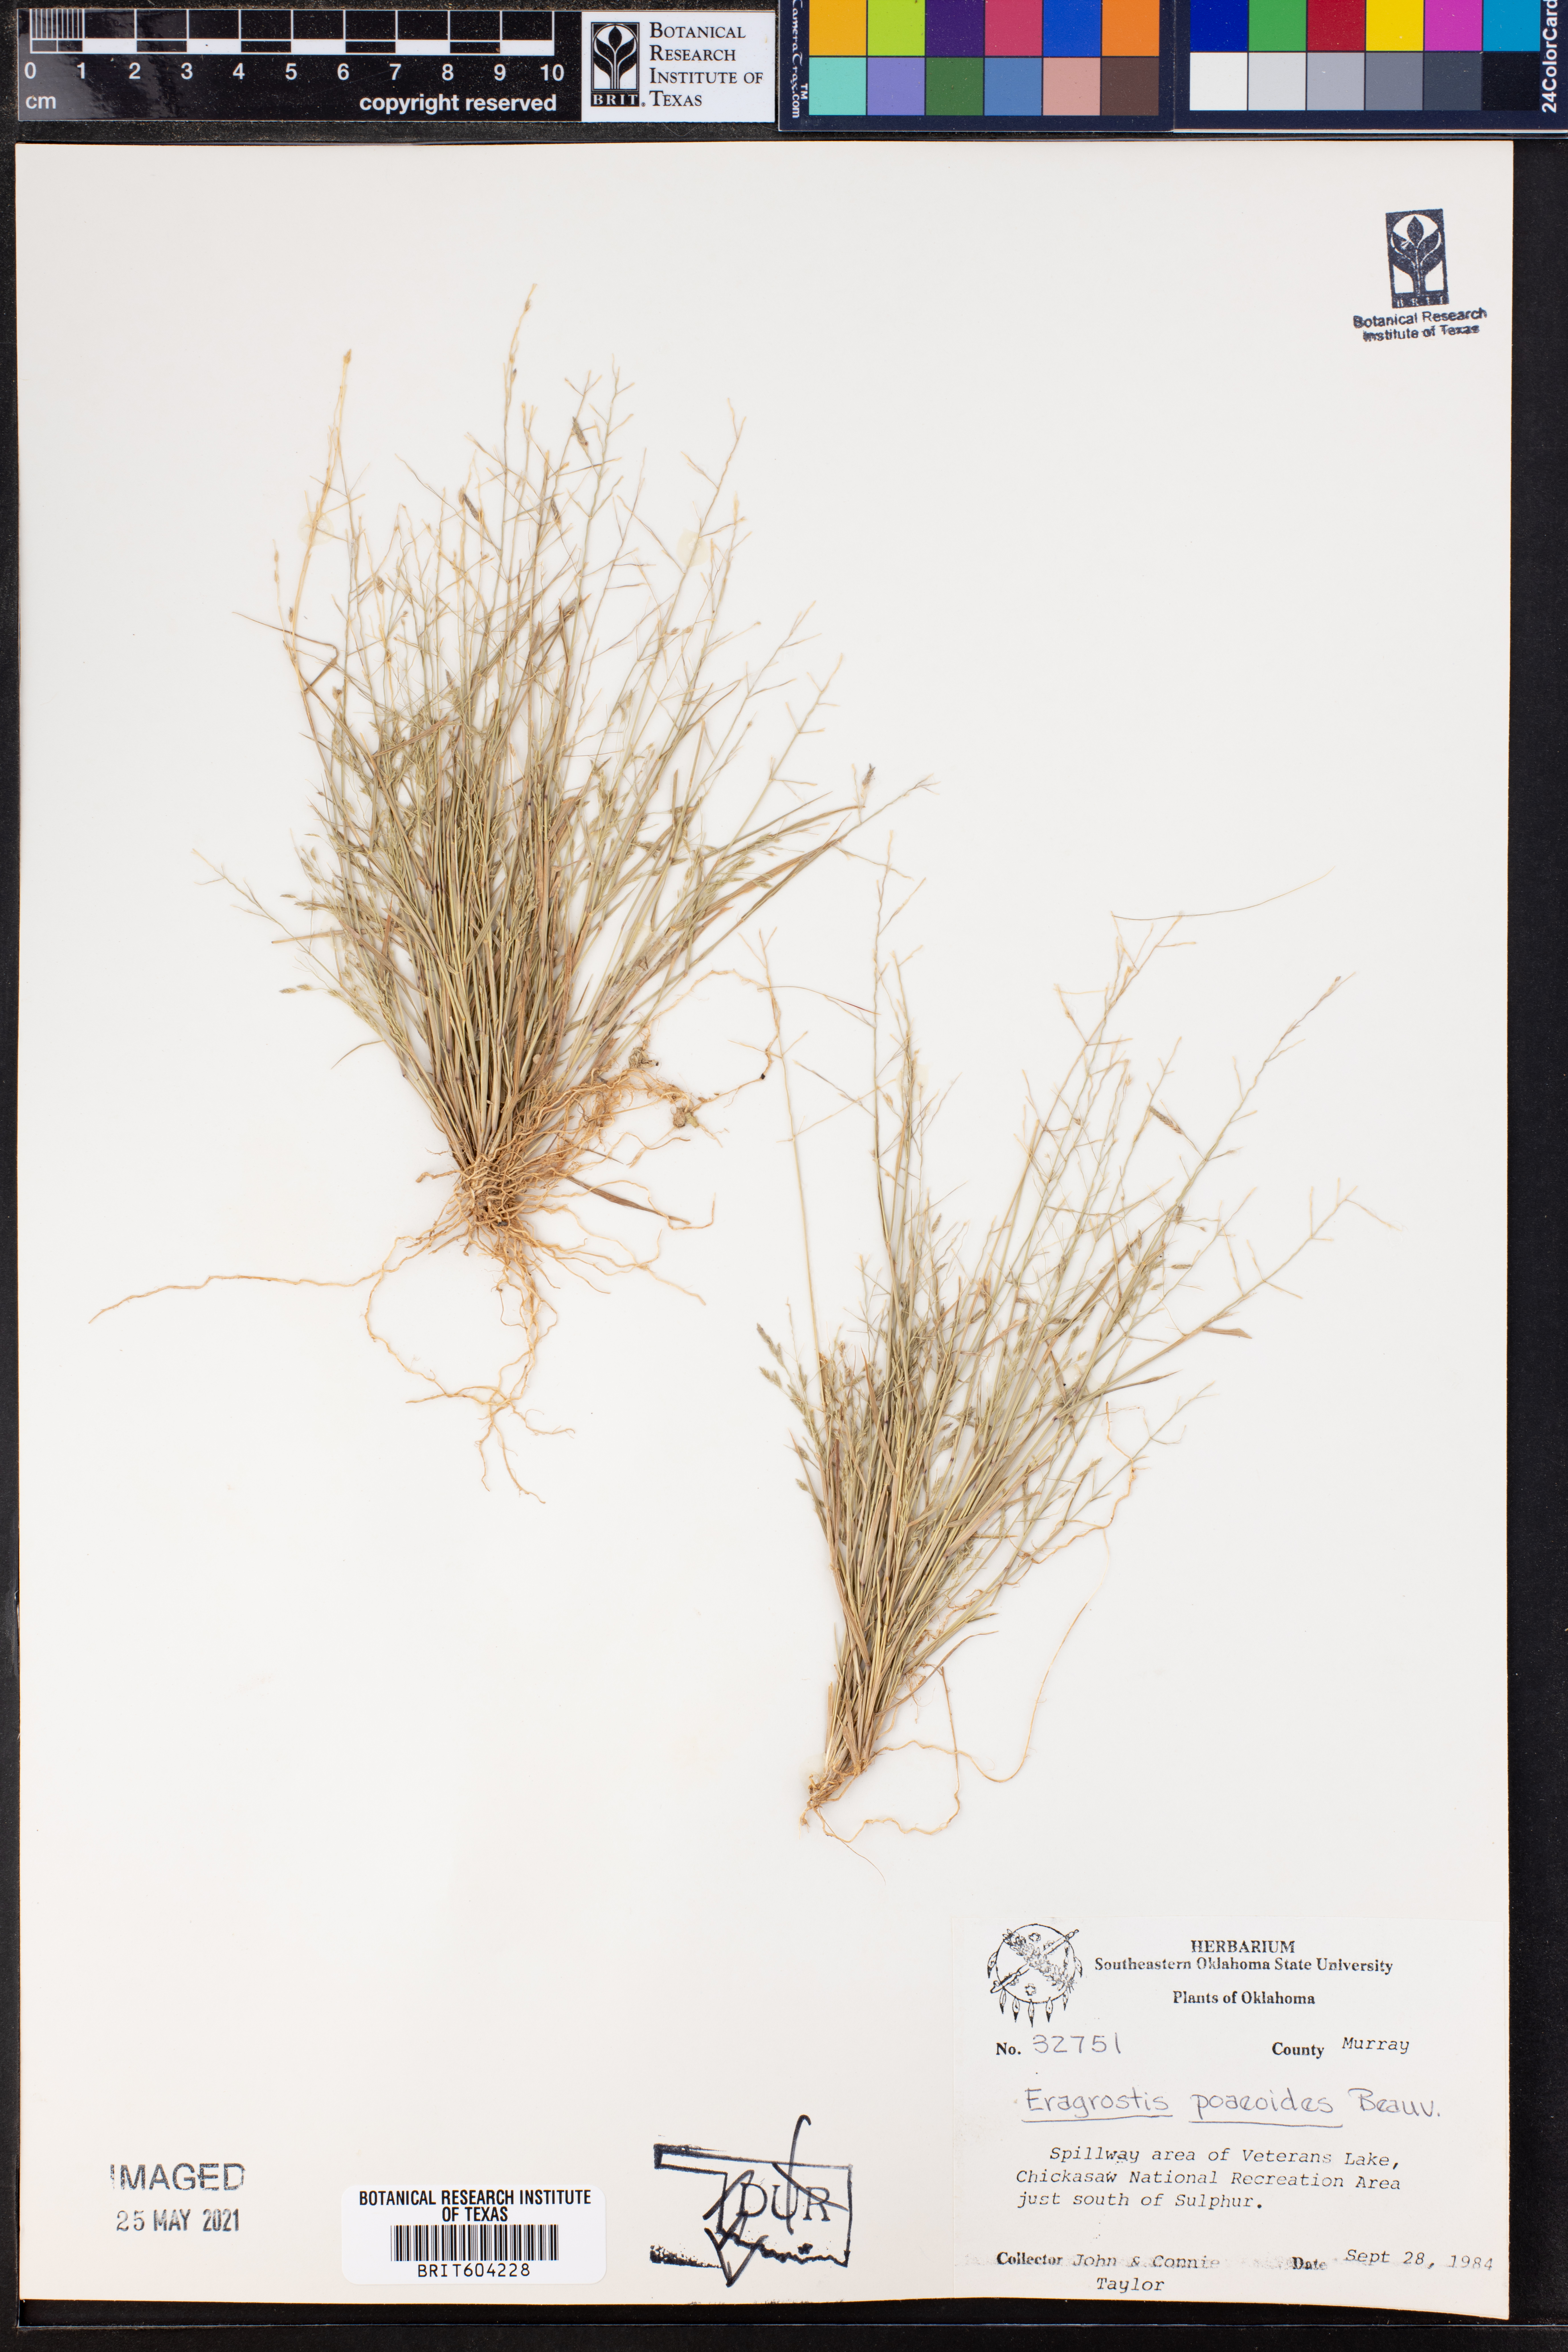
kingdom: Plantae
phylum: Tracheophyta
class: Liliopsida
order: Poales
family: Poaceae
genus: Eragrostis
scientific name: Eragrostis minor
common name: Small love-grass
